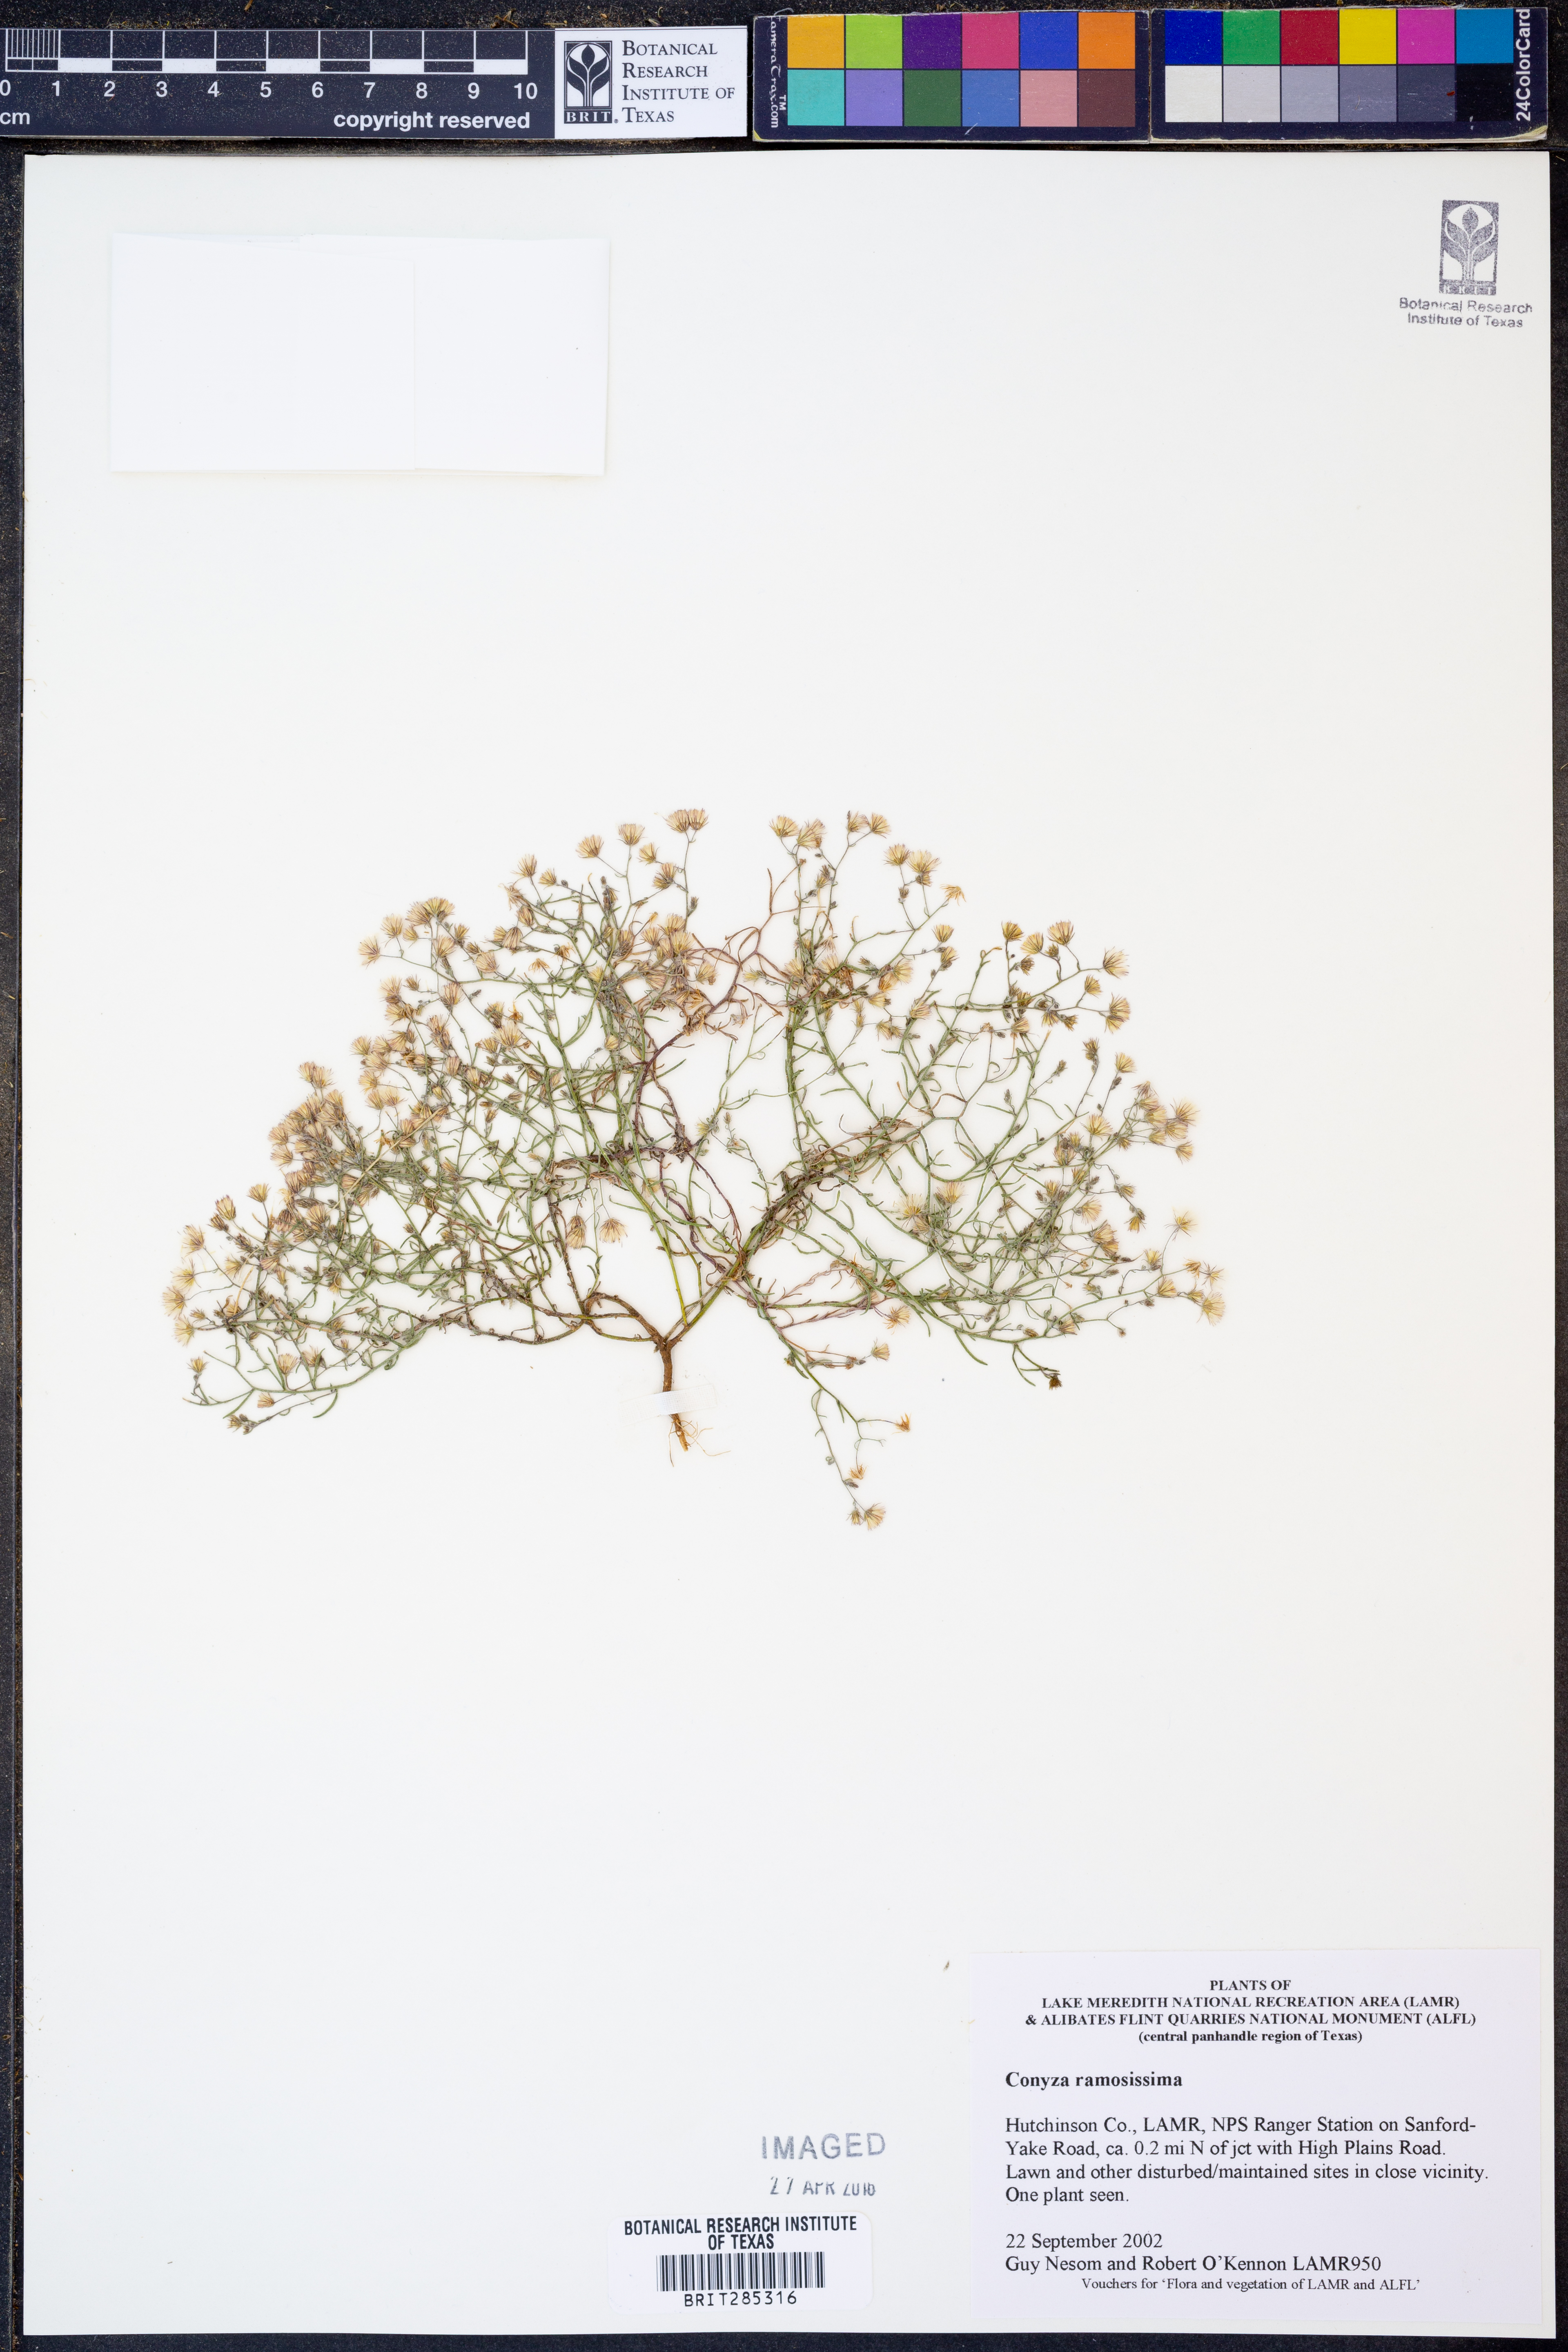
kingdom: Plantae
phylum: Tracheophyta
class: Magnoliopsida
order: Asterales
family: Asteraceae
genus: Erigeron
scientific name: Erigeron divaricatus
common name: Dwarf conyza
